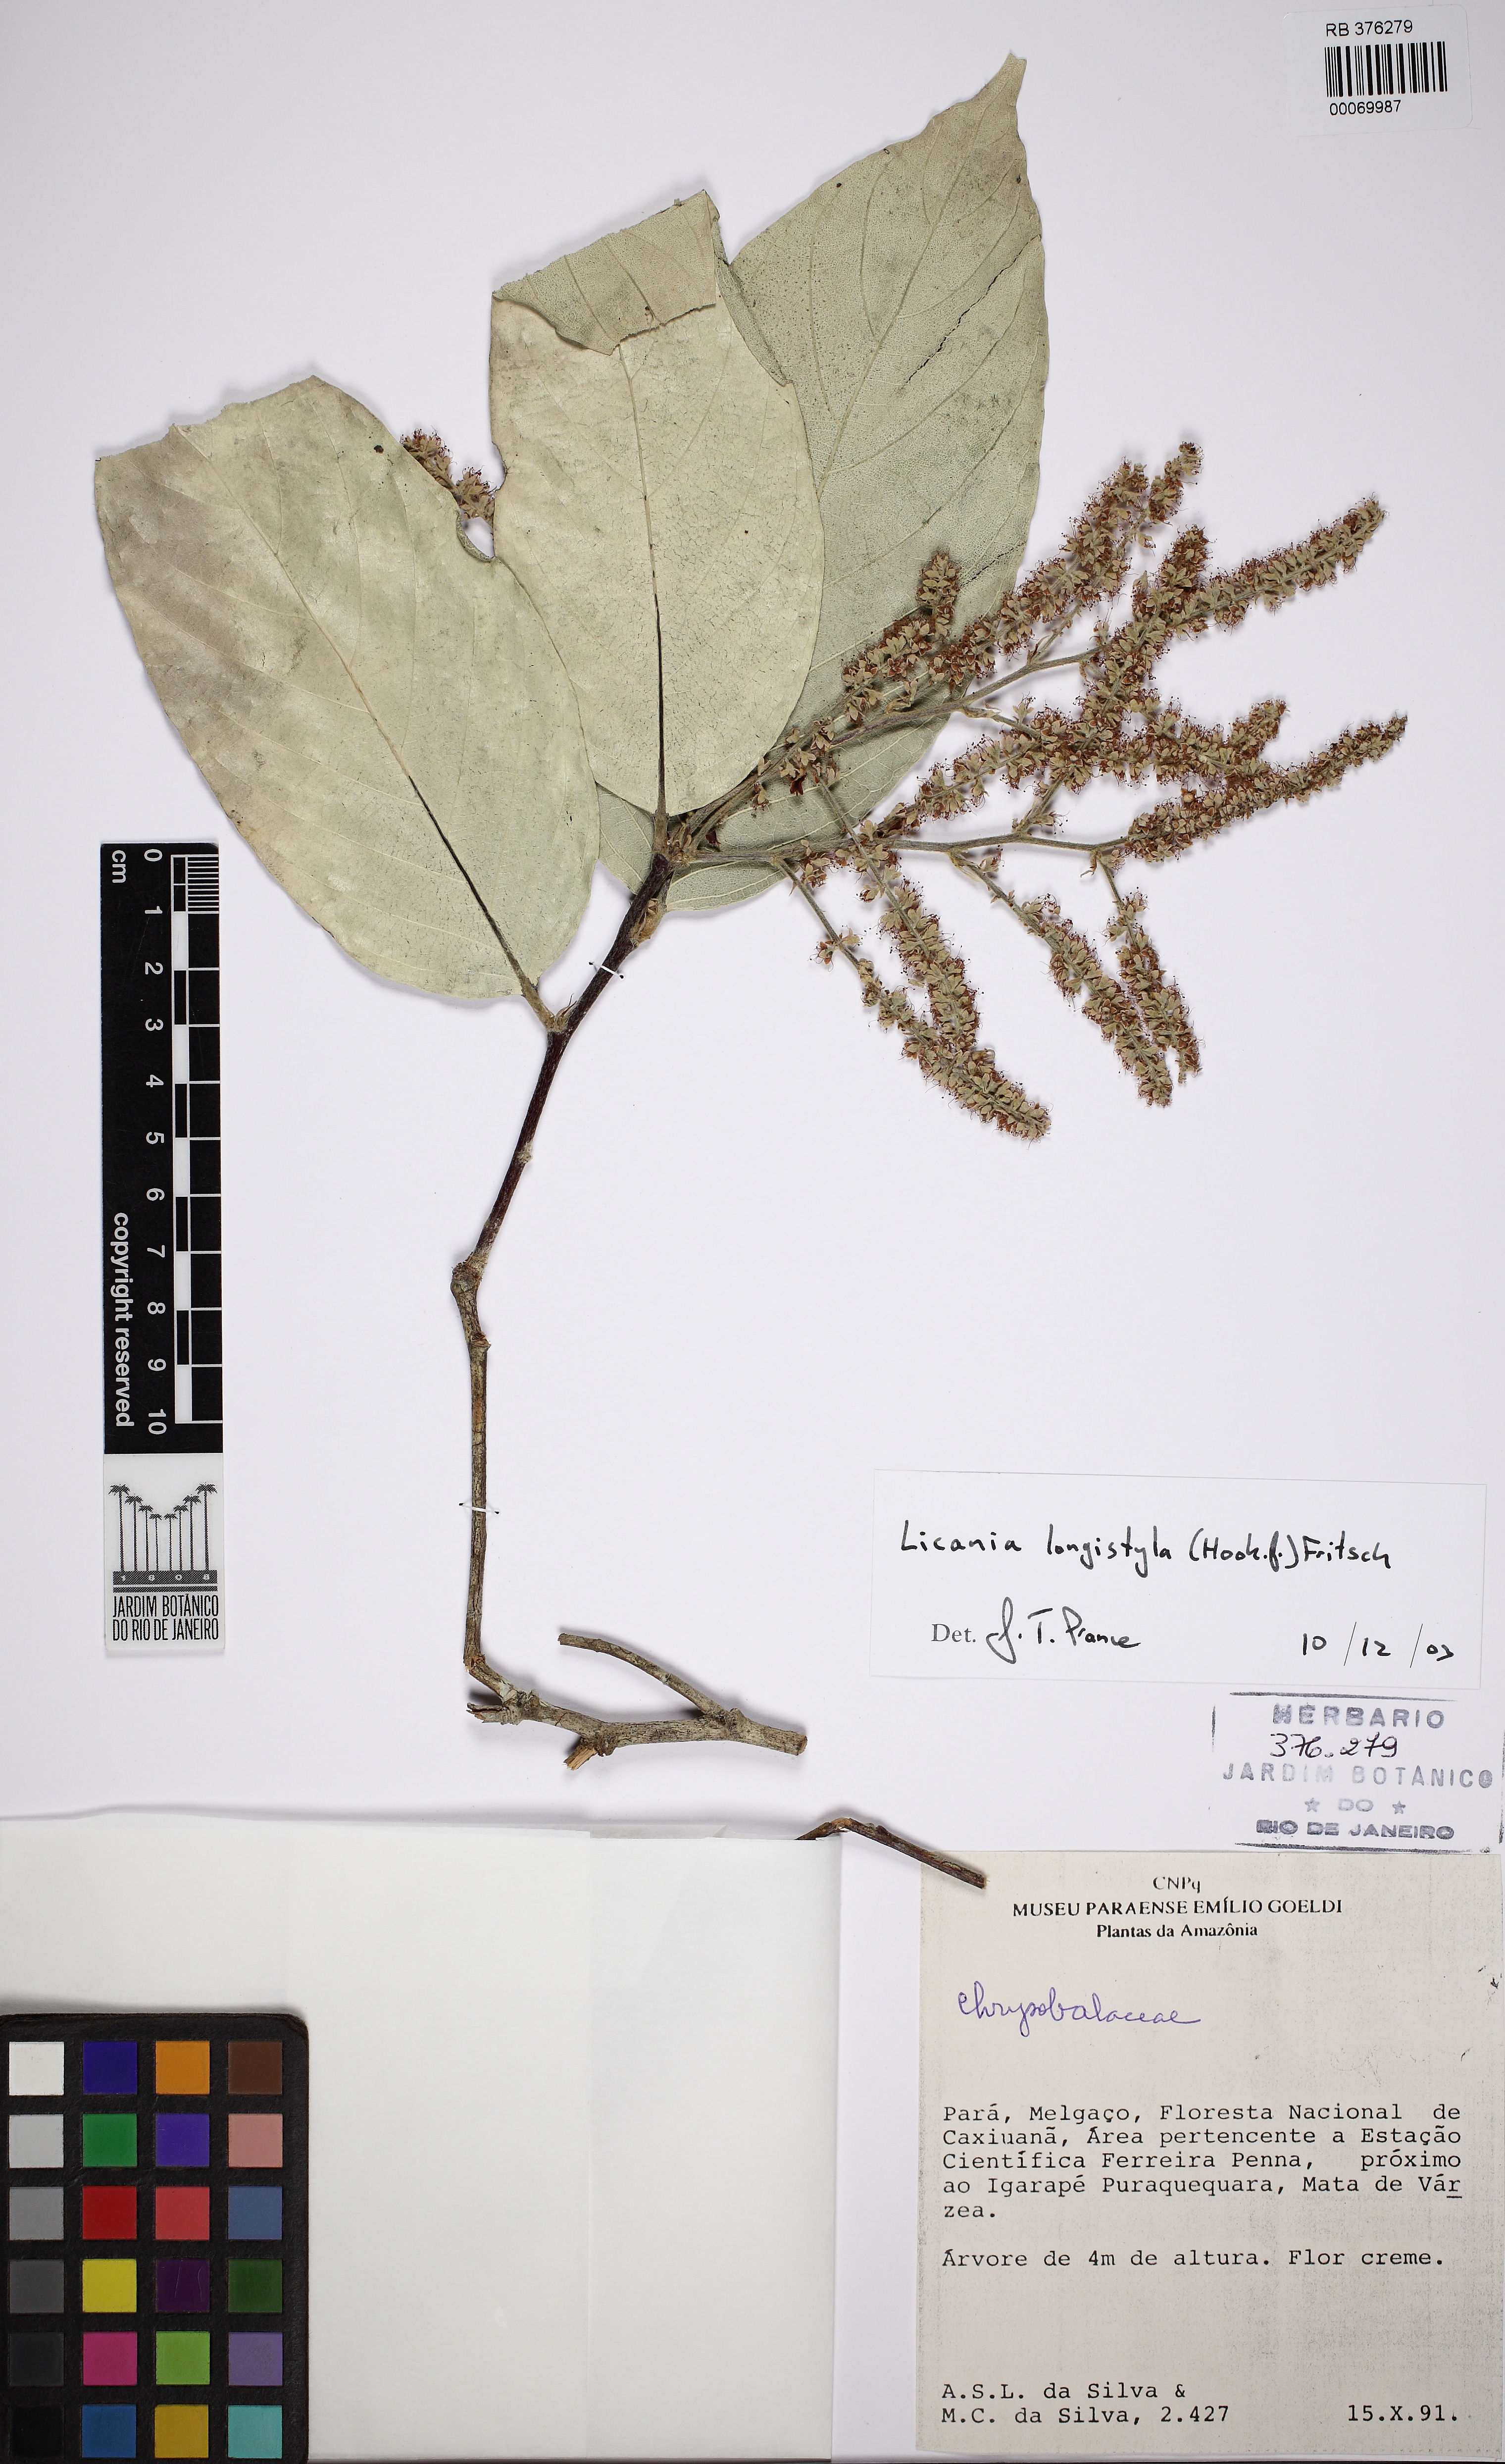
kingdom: Plantae
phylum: Tracheophyta
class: Magnoliopsida
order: Malpighiales
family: Chrysobalanaceae
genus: Leptobalanus
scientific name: Leptobalanus longistylus
